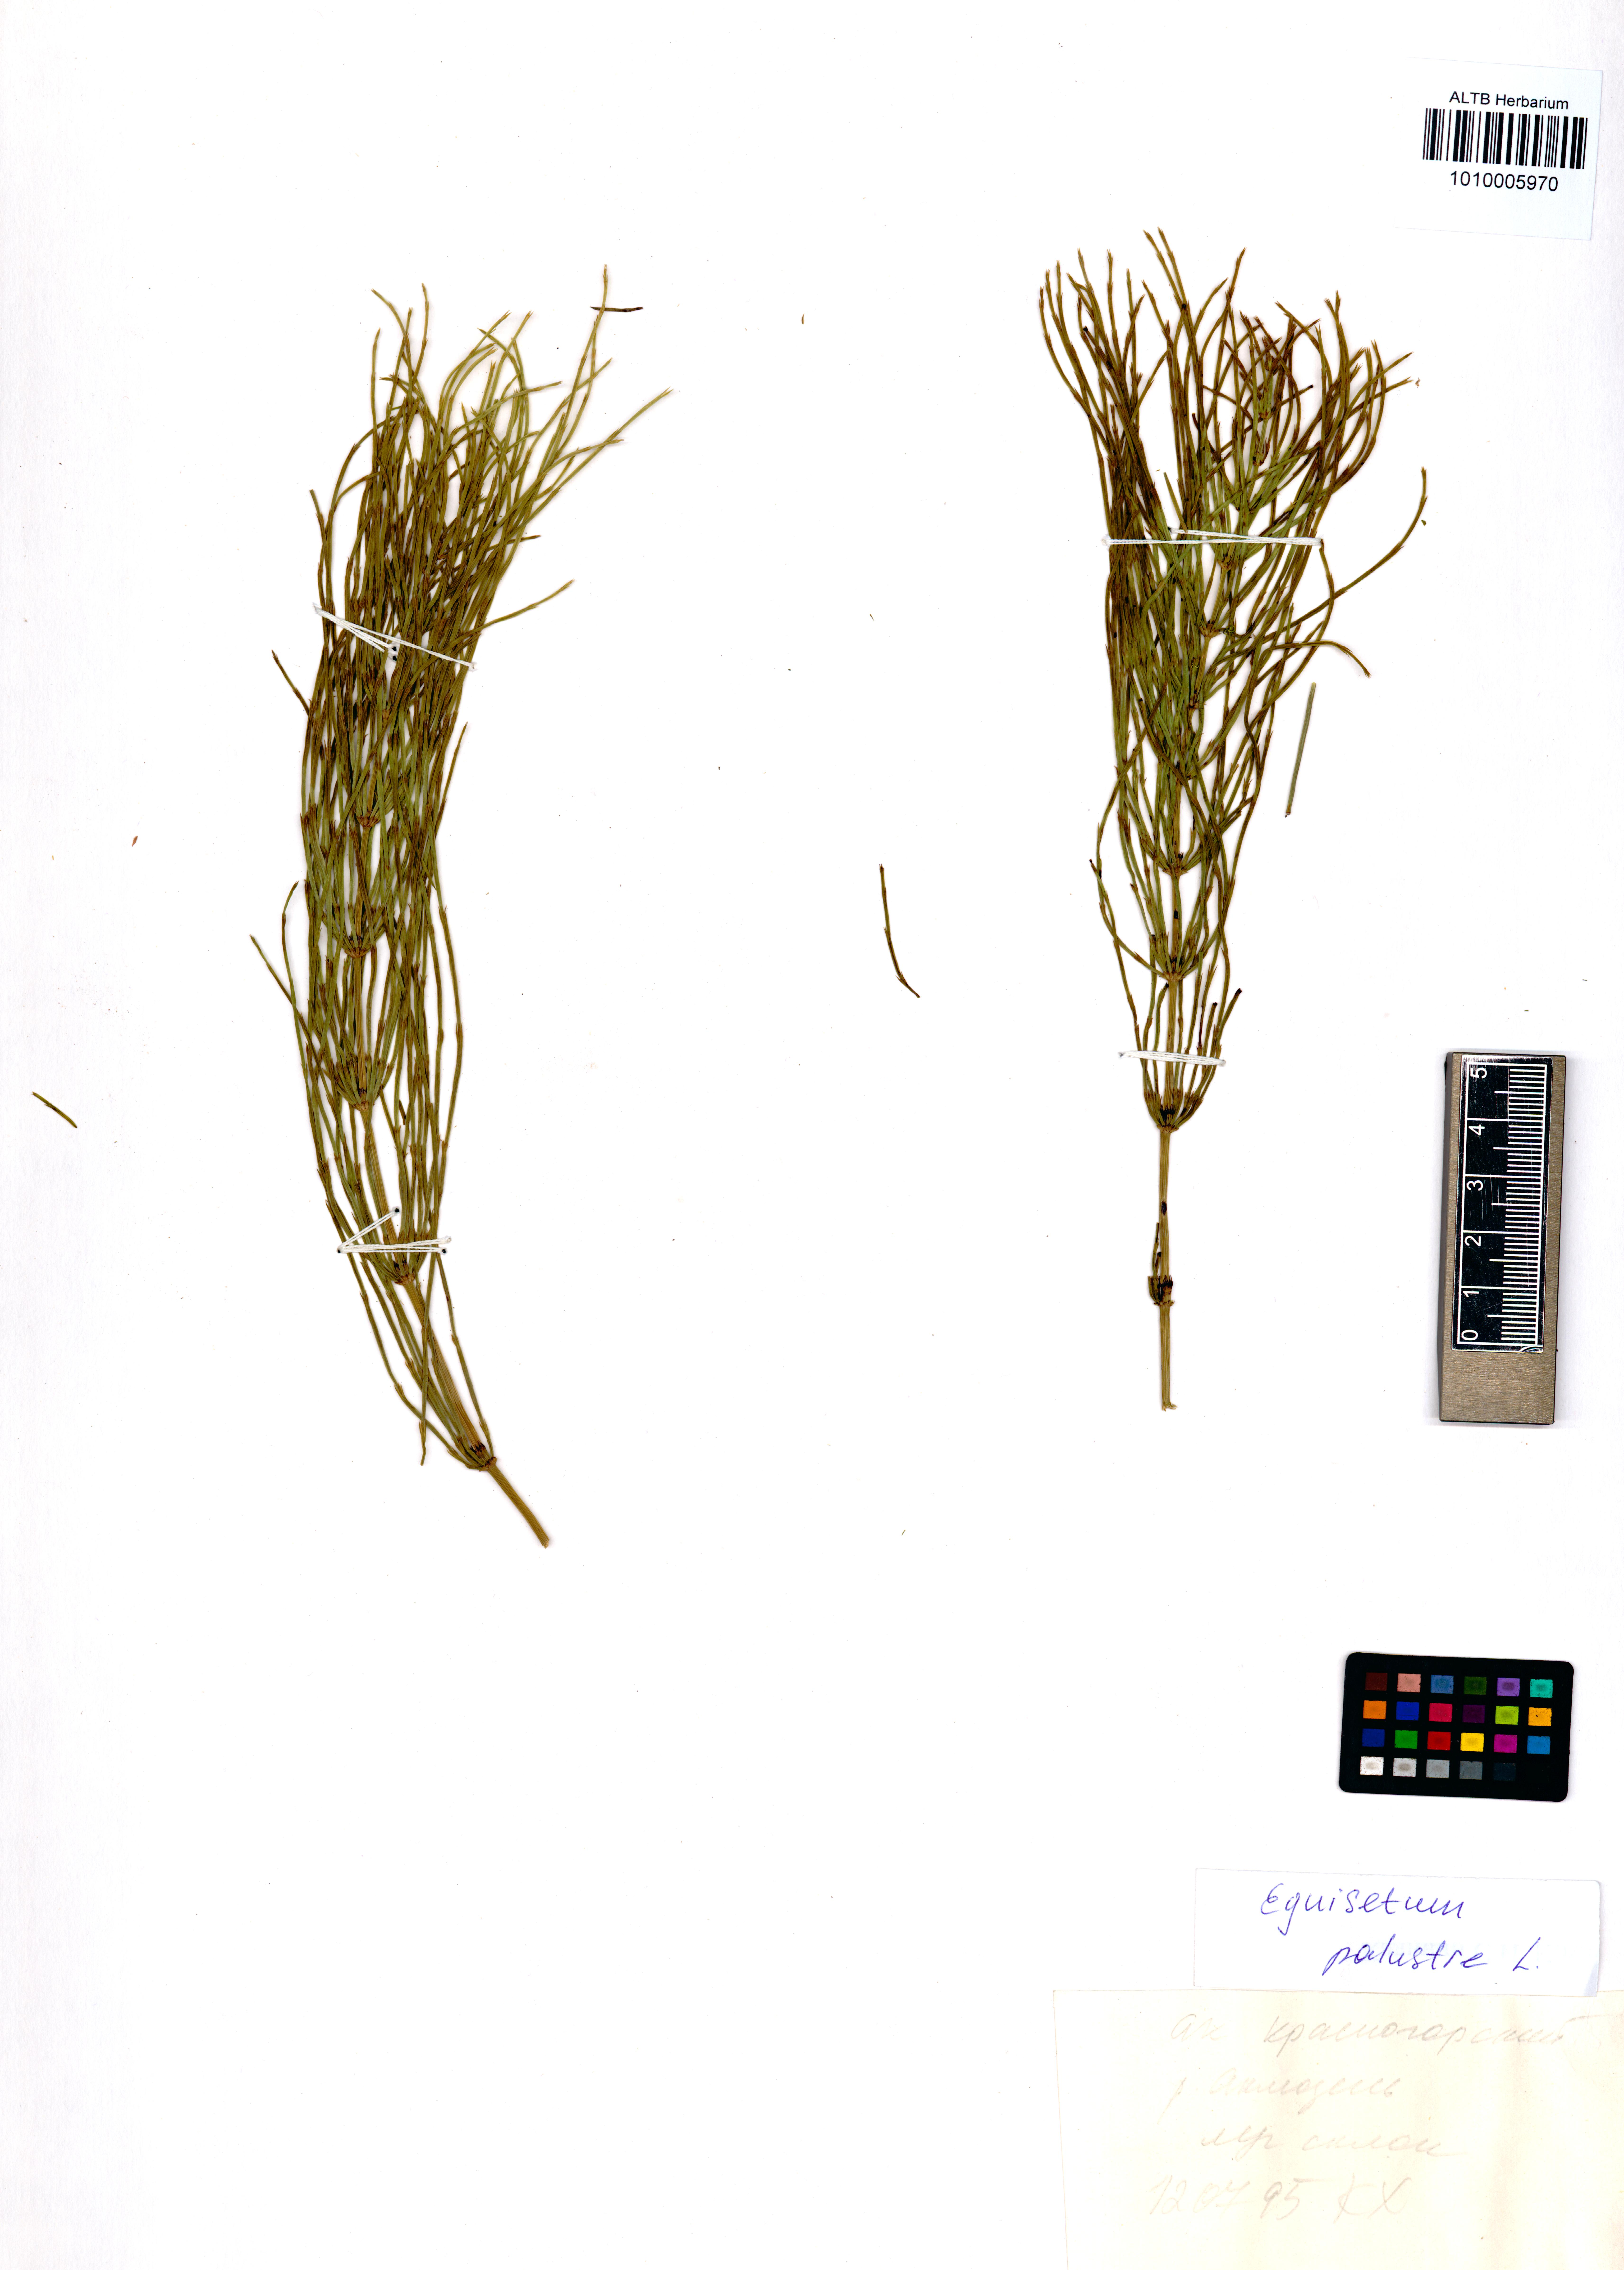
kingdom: Plantae
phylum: Tracheophyta
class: Polypodiopsida
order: Equisetales
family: Equisetaceae
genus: Equisetum
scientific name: Equisetum palustre
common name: Marsh horsetail
